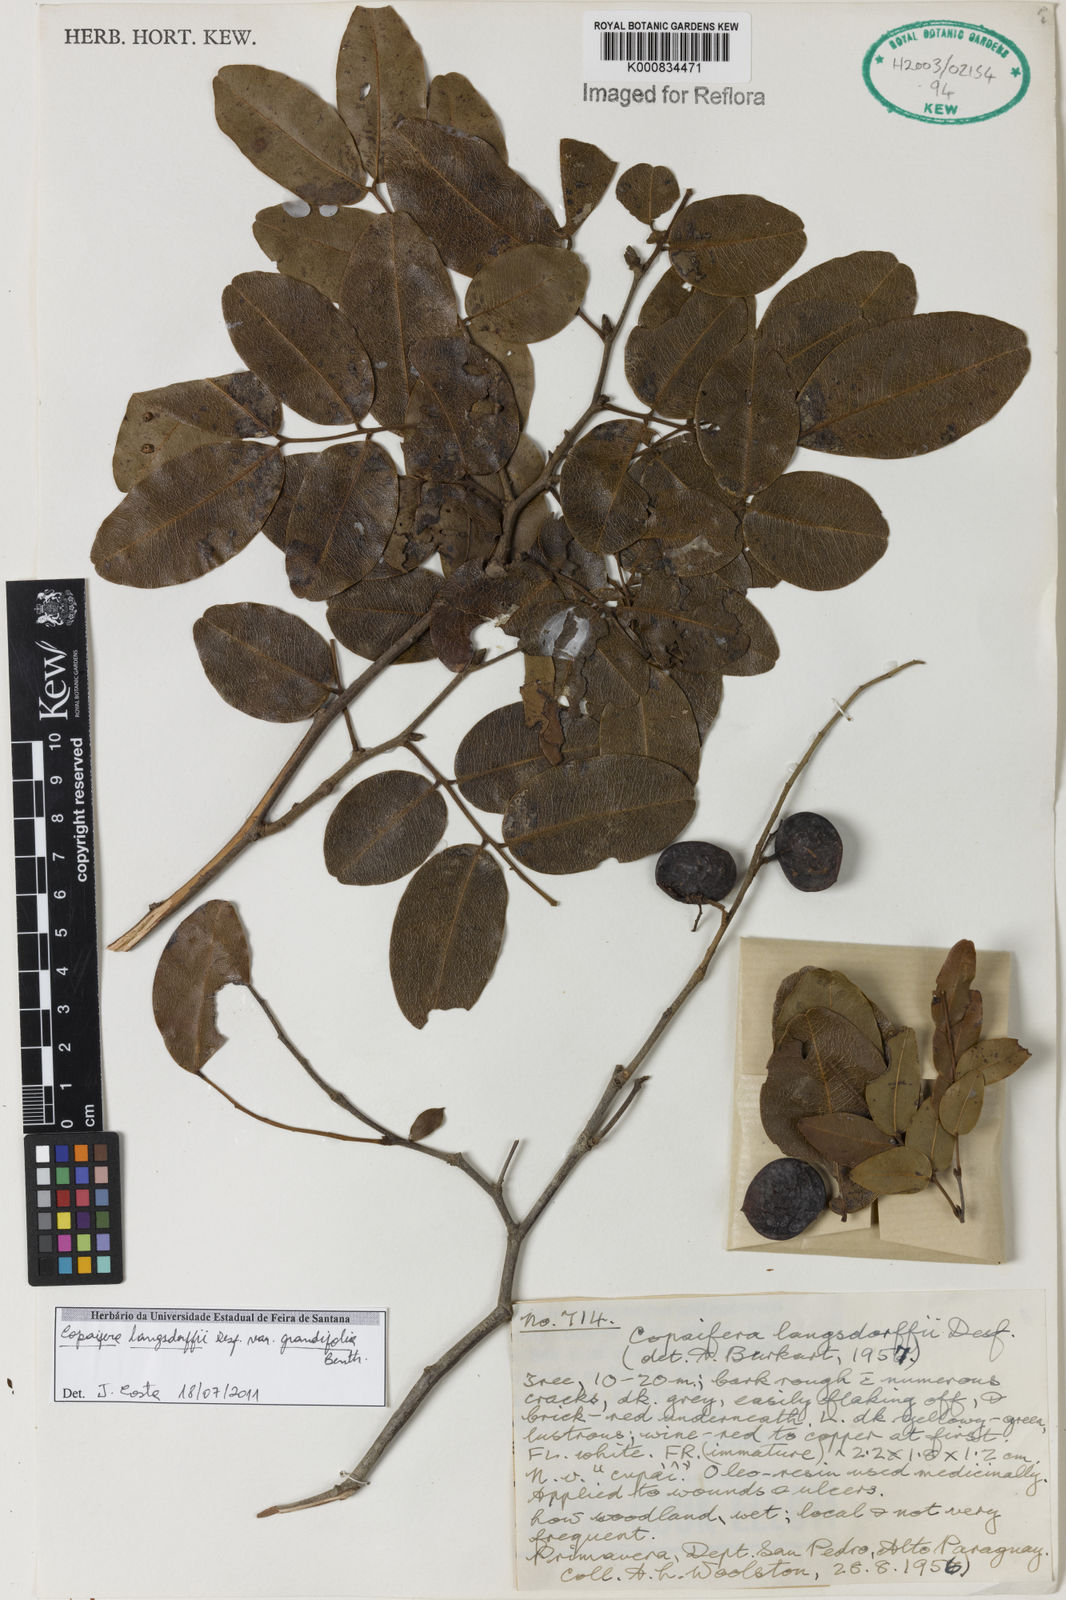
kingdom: Plantae
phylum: Tracheophyta
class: Magnoliopsida
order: Fabales
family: Fabaceae
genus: Copaifera
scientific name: Copaifera langsdorffii
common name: Brazilian diesel tree
